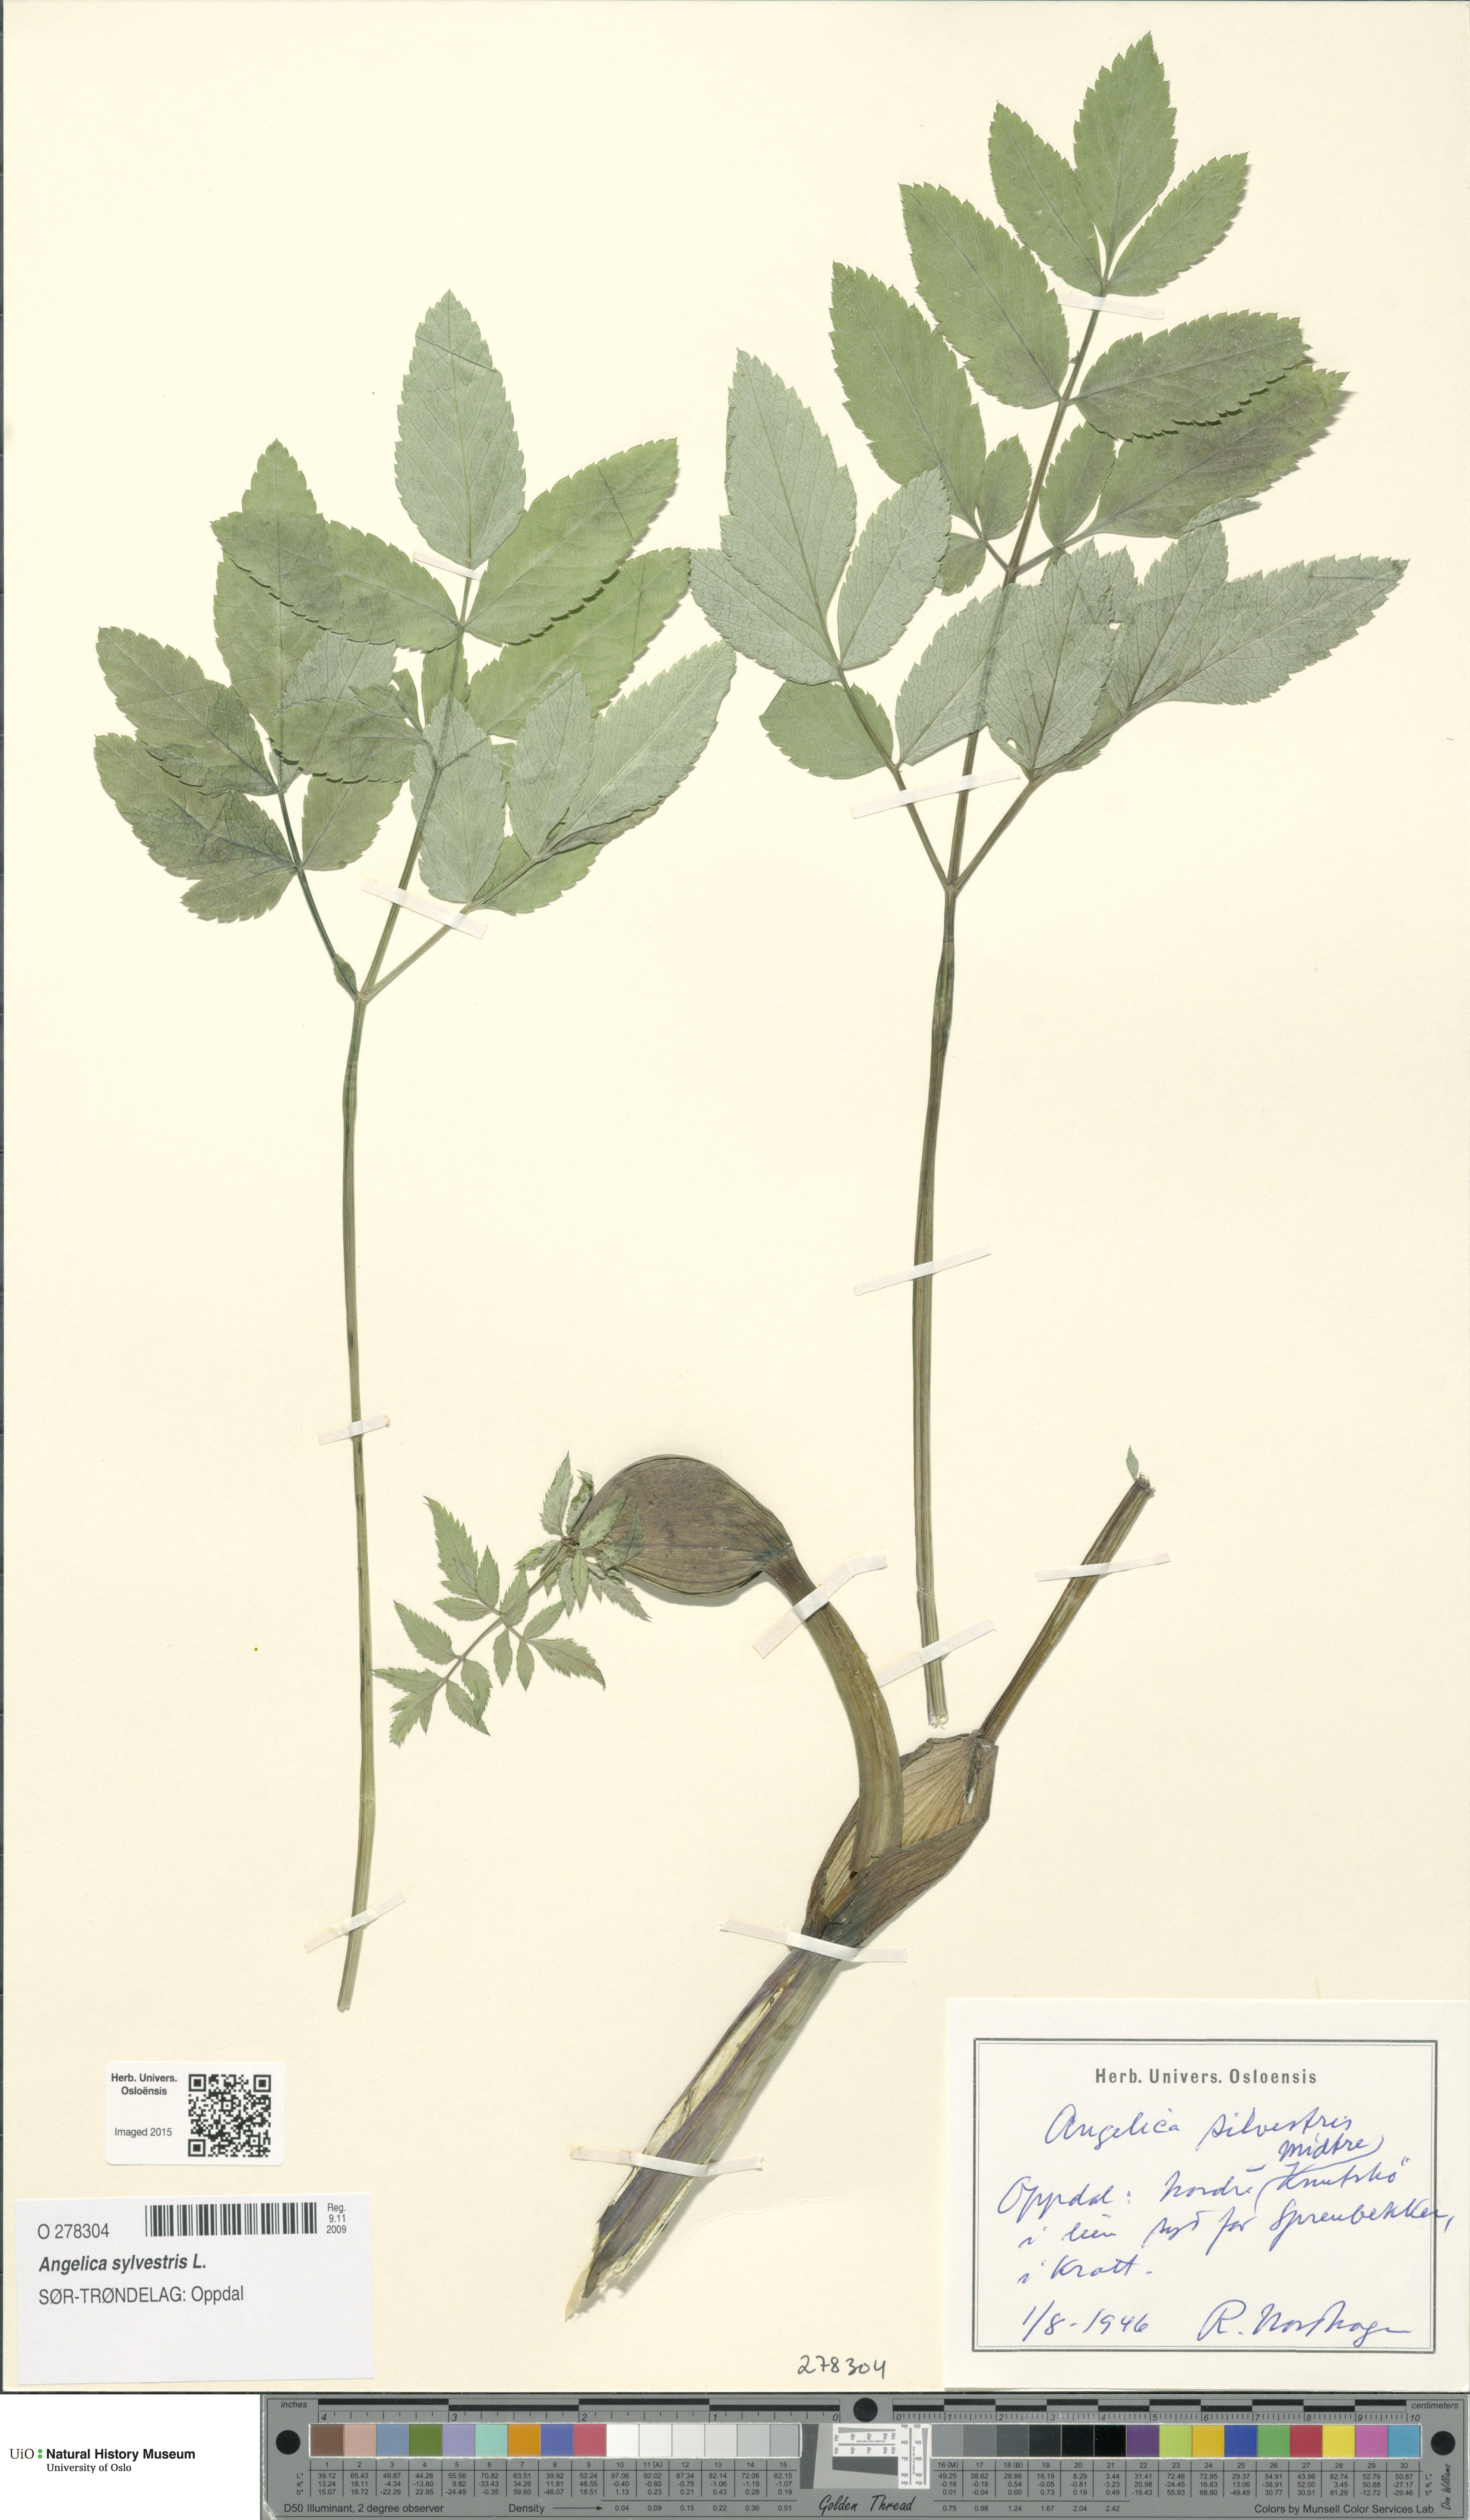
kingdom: Plantae
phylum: Tracheophyta
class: Magnoliopsida
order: Apiales
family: Apiaceae
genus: Angelica
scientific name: Angelica sylvestris
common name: Wild angelica
